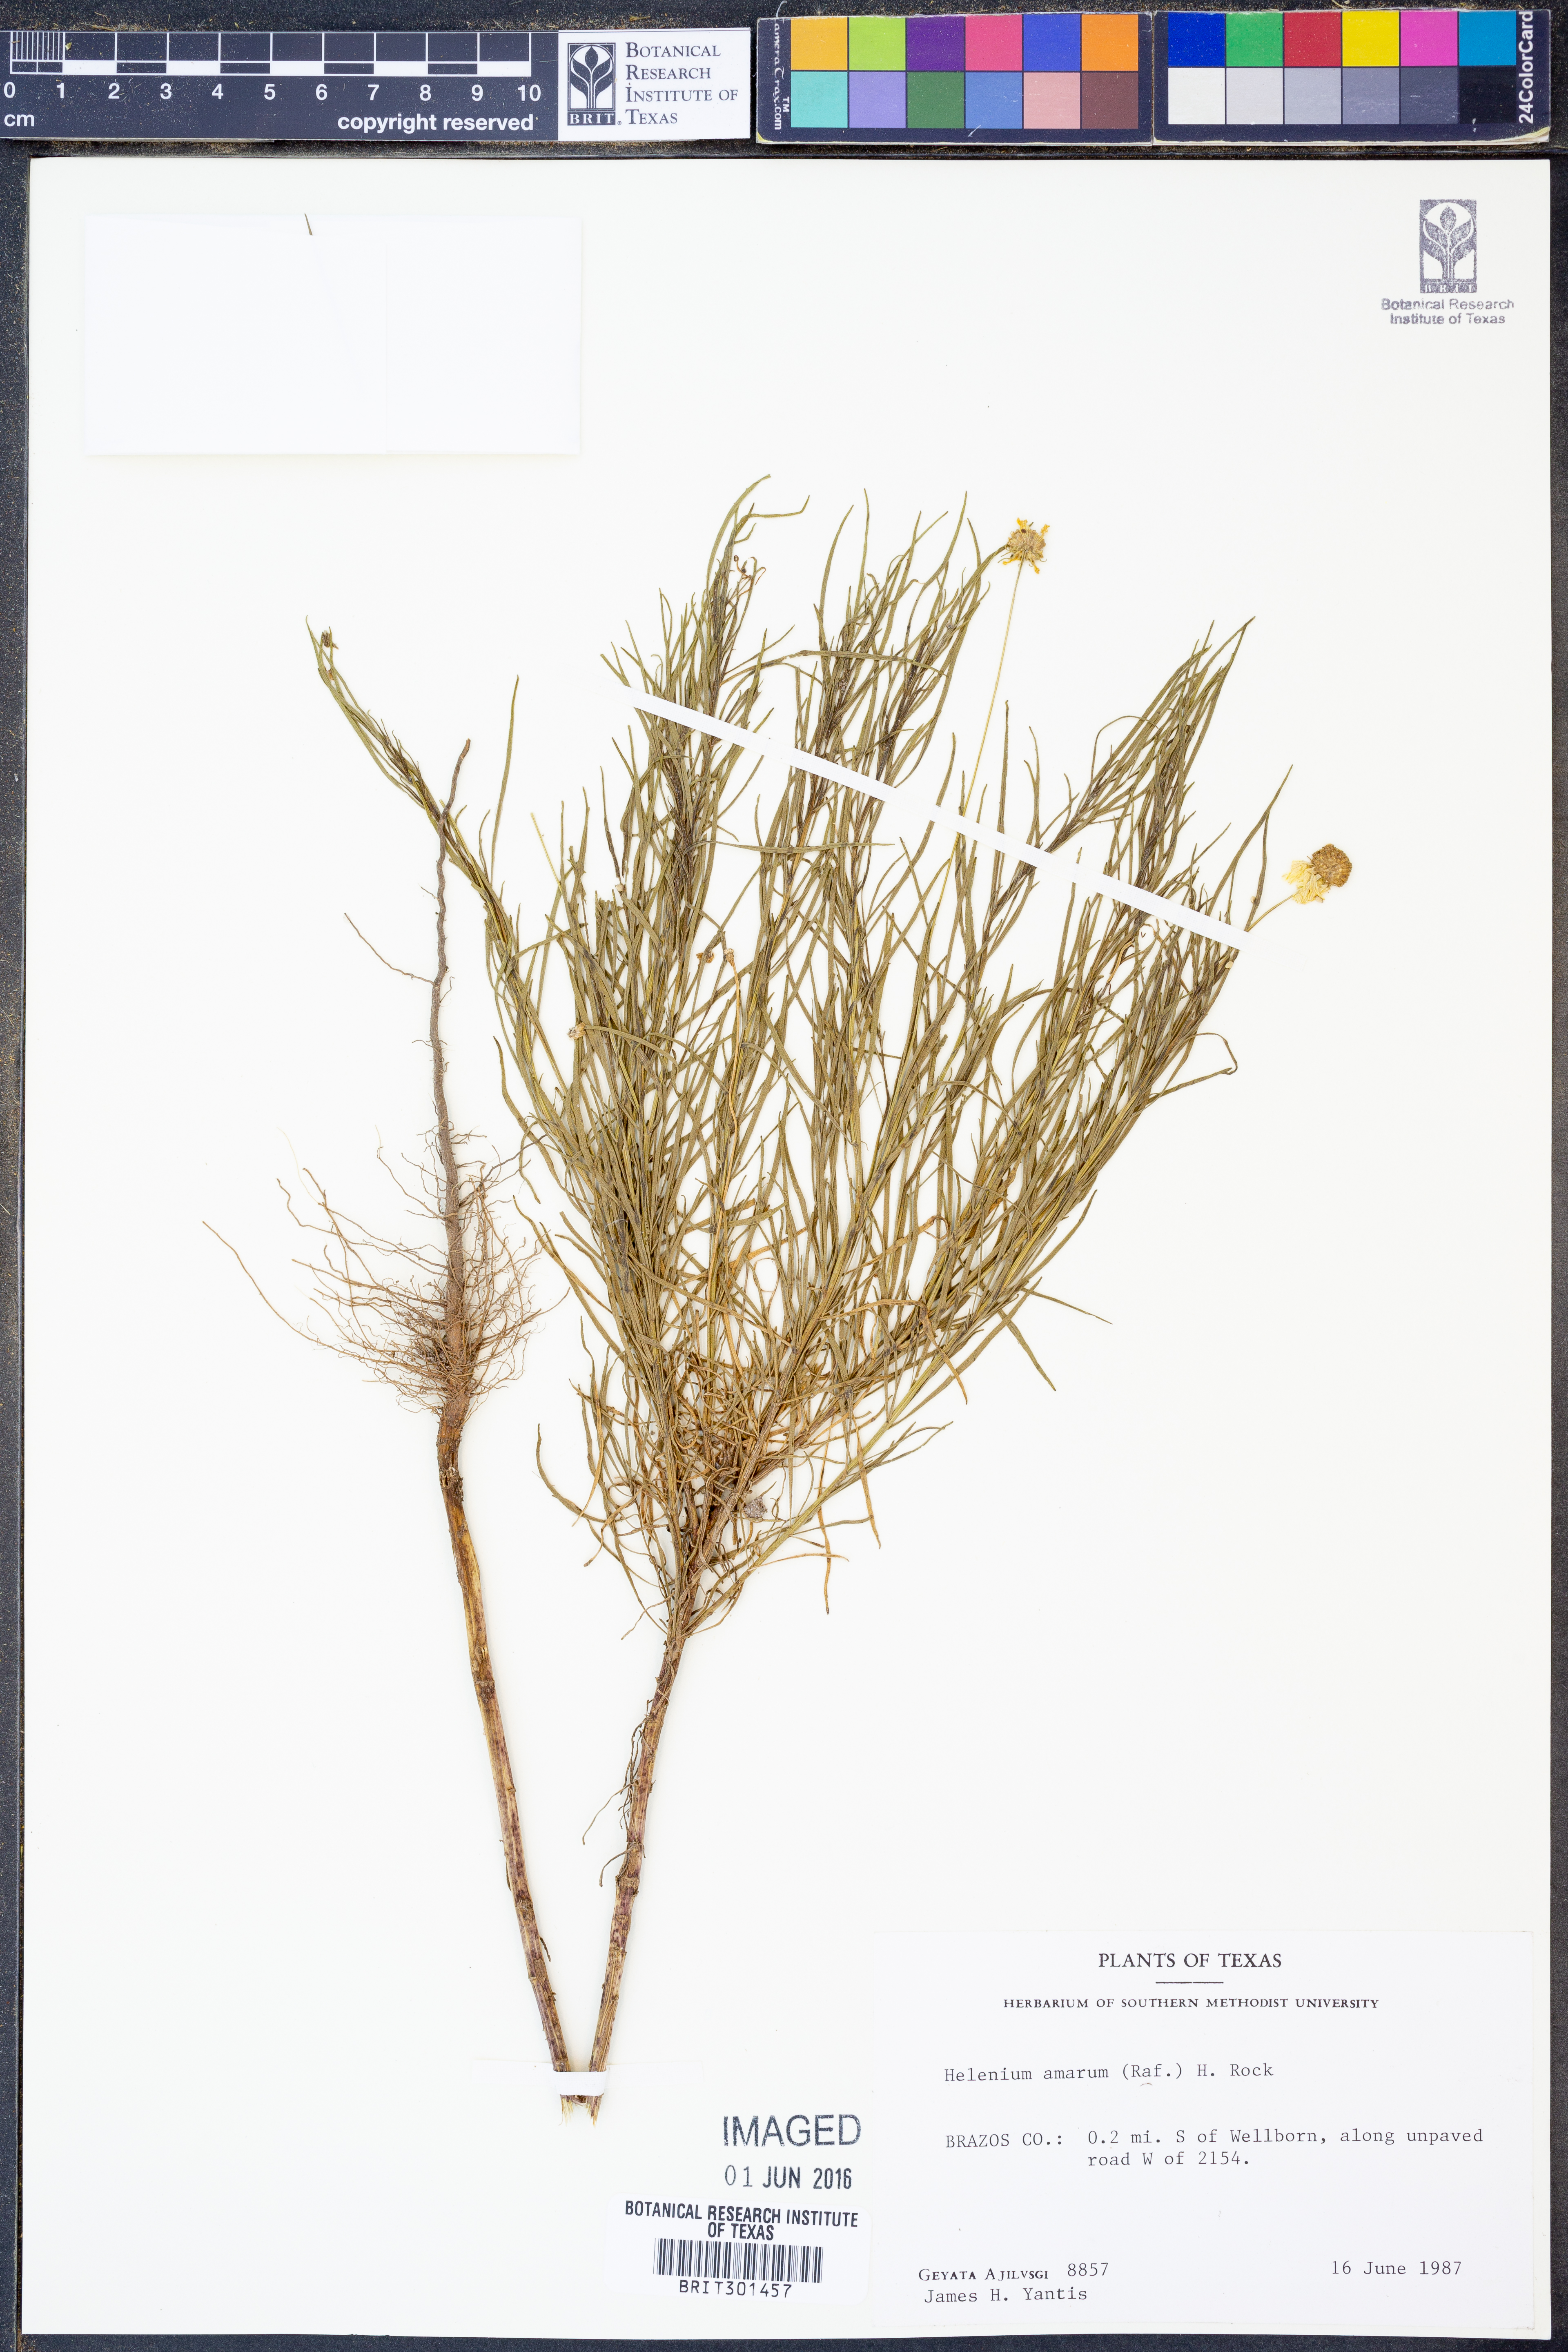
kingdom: Plantae
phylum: Tracheophyta
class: Magnoliopsida
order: Asterales
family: Asteraceae
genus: Helenium
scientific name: Helenium amarum
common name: Bitter sneezeweed
